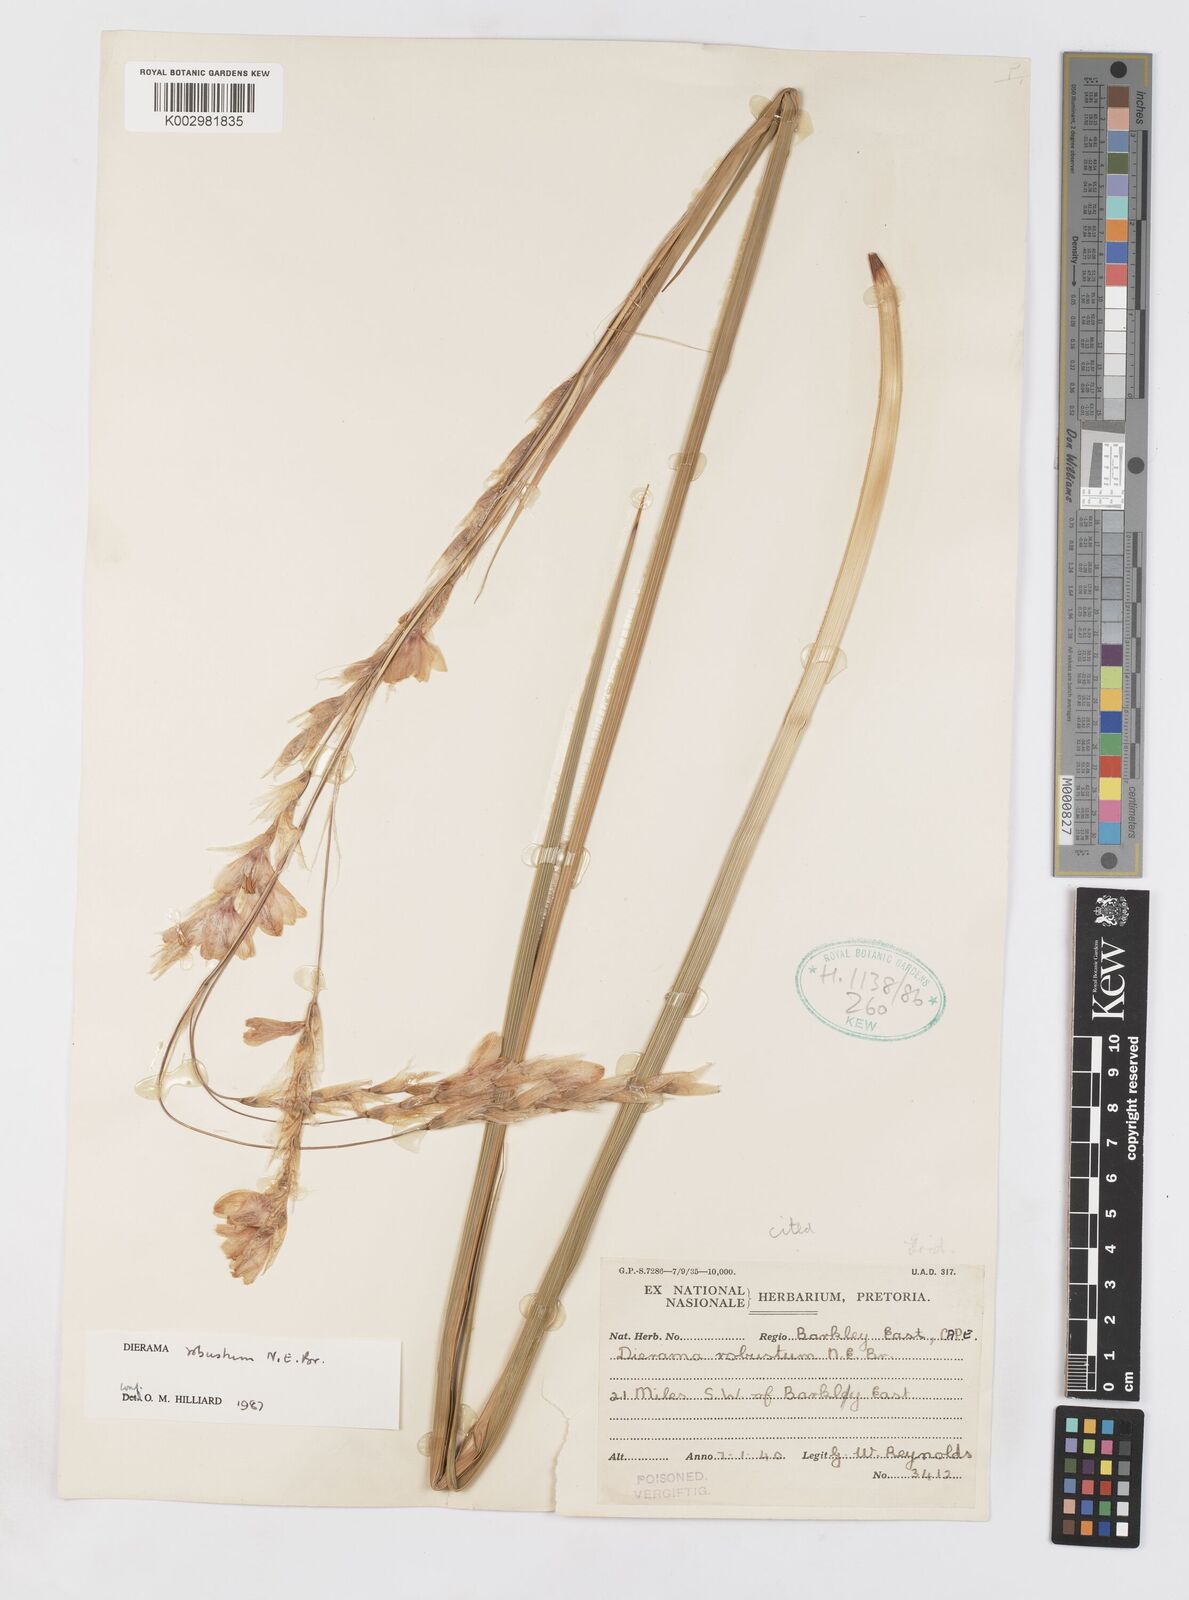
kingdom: Plantae
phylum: Tracheophyta
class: Liliopsida
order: Asparagales
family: Iridaceae
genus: Dierama
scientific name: Dierama robustum
